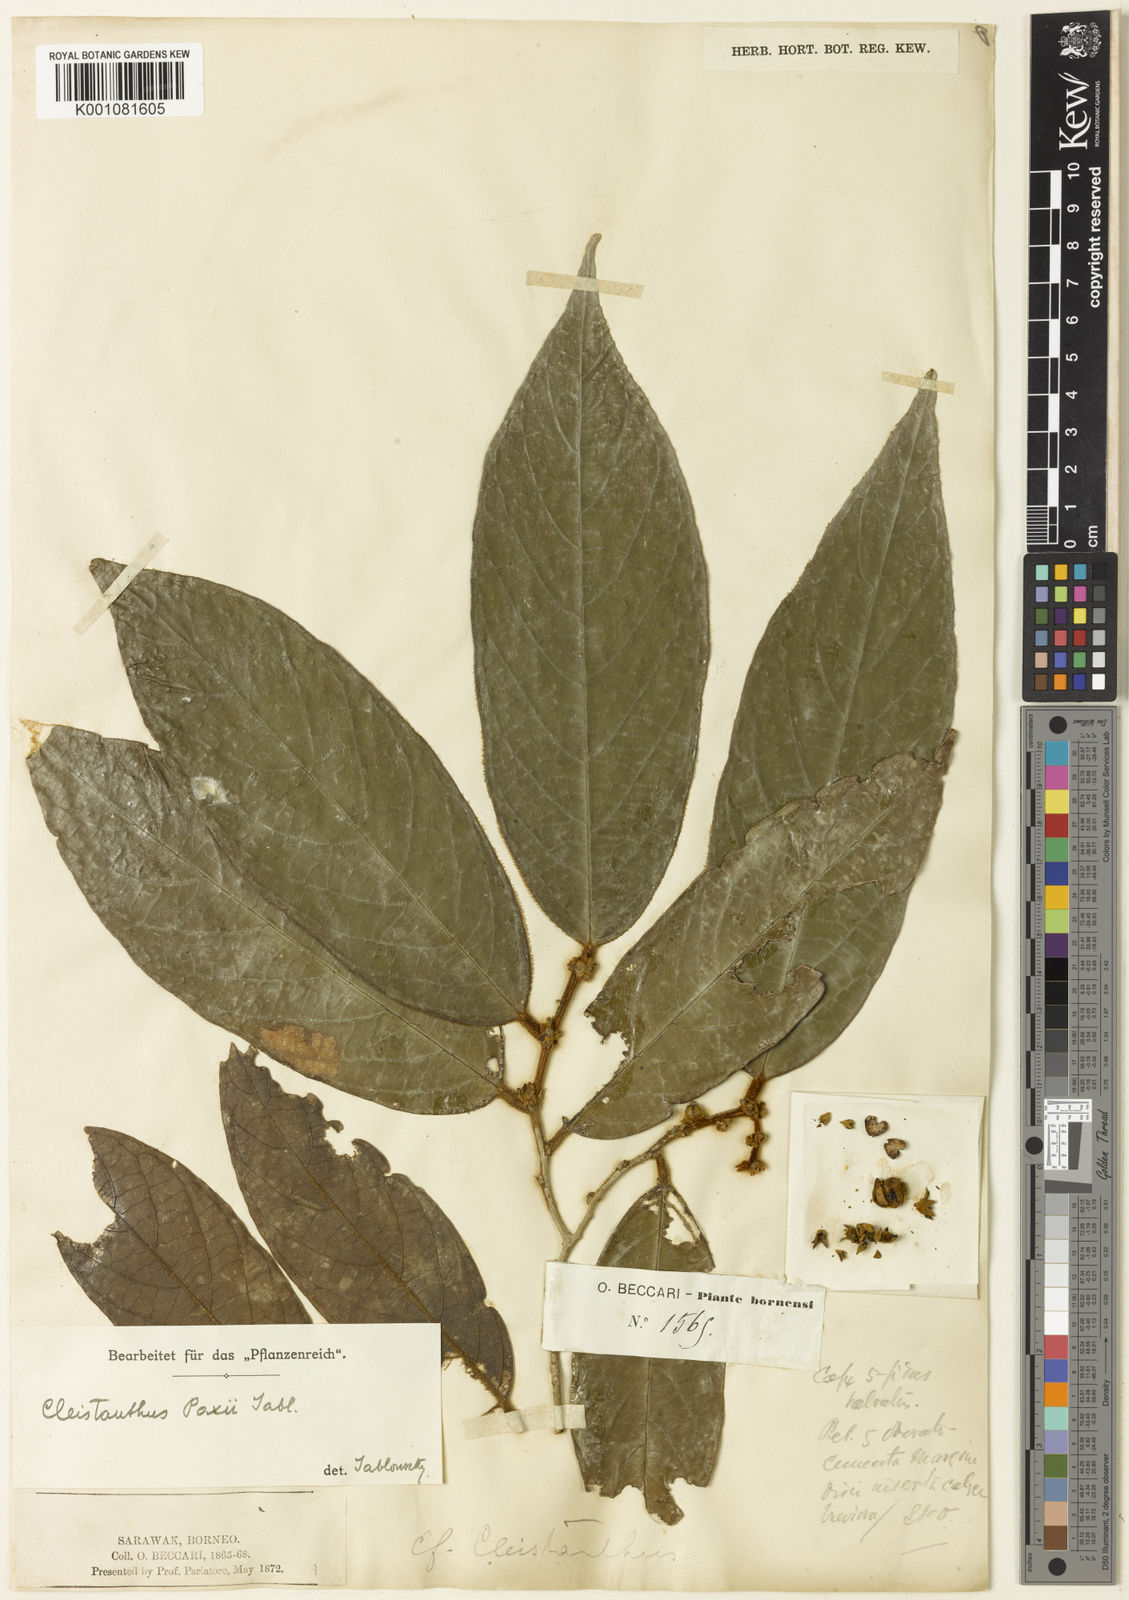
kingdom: Plantae
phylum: Tracheophyta
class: Magnoliopsida
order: Malpighiales
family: Phyllanthaceae
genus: Cleistanthus
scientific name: Cleistanthus paxii
